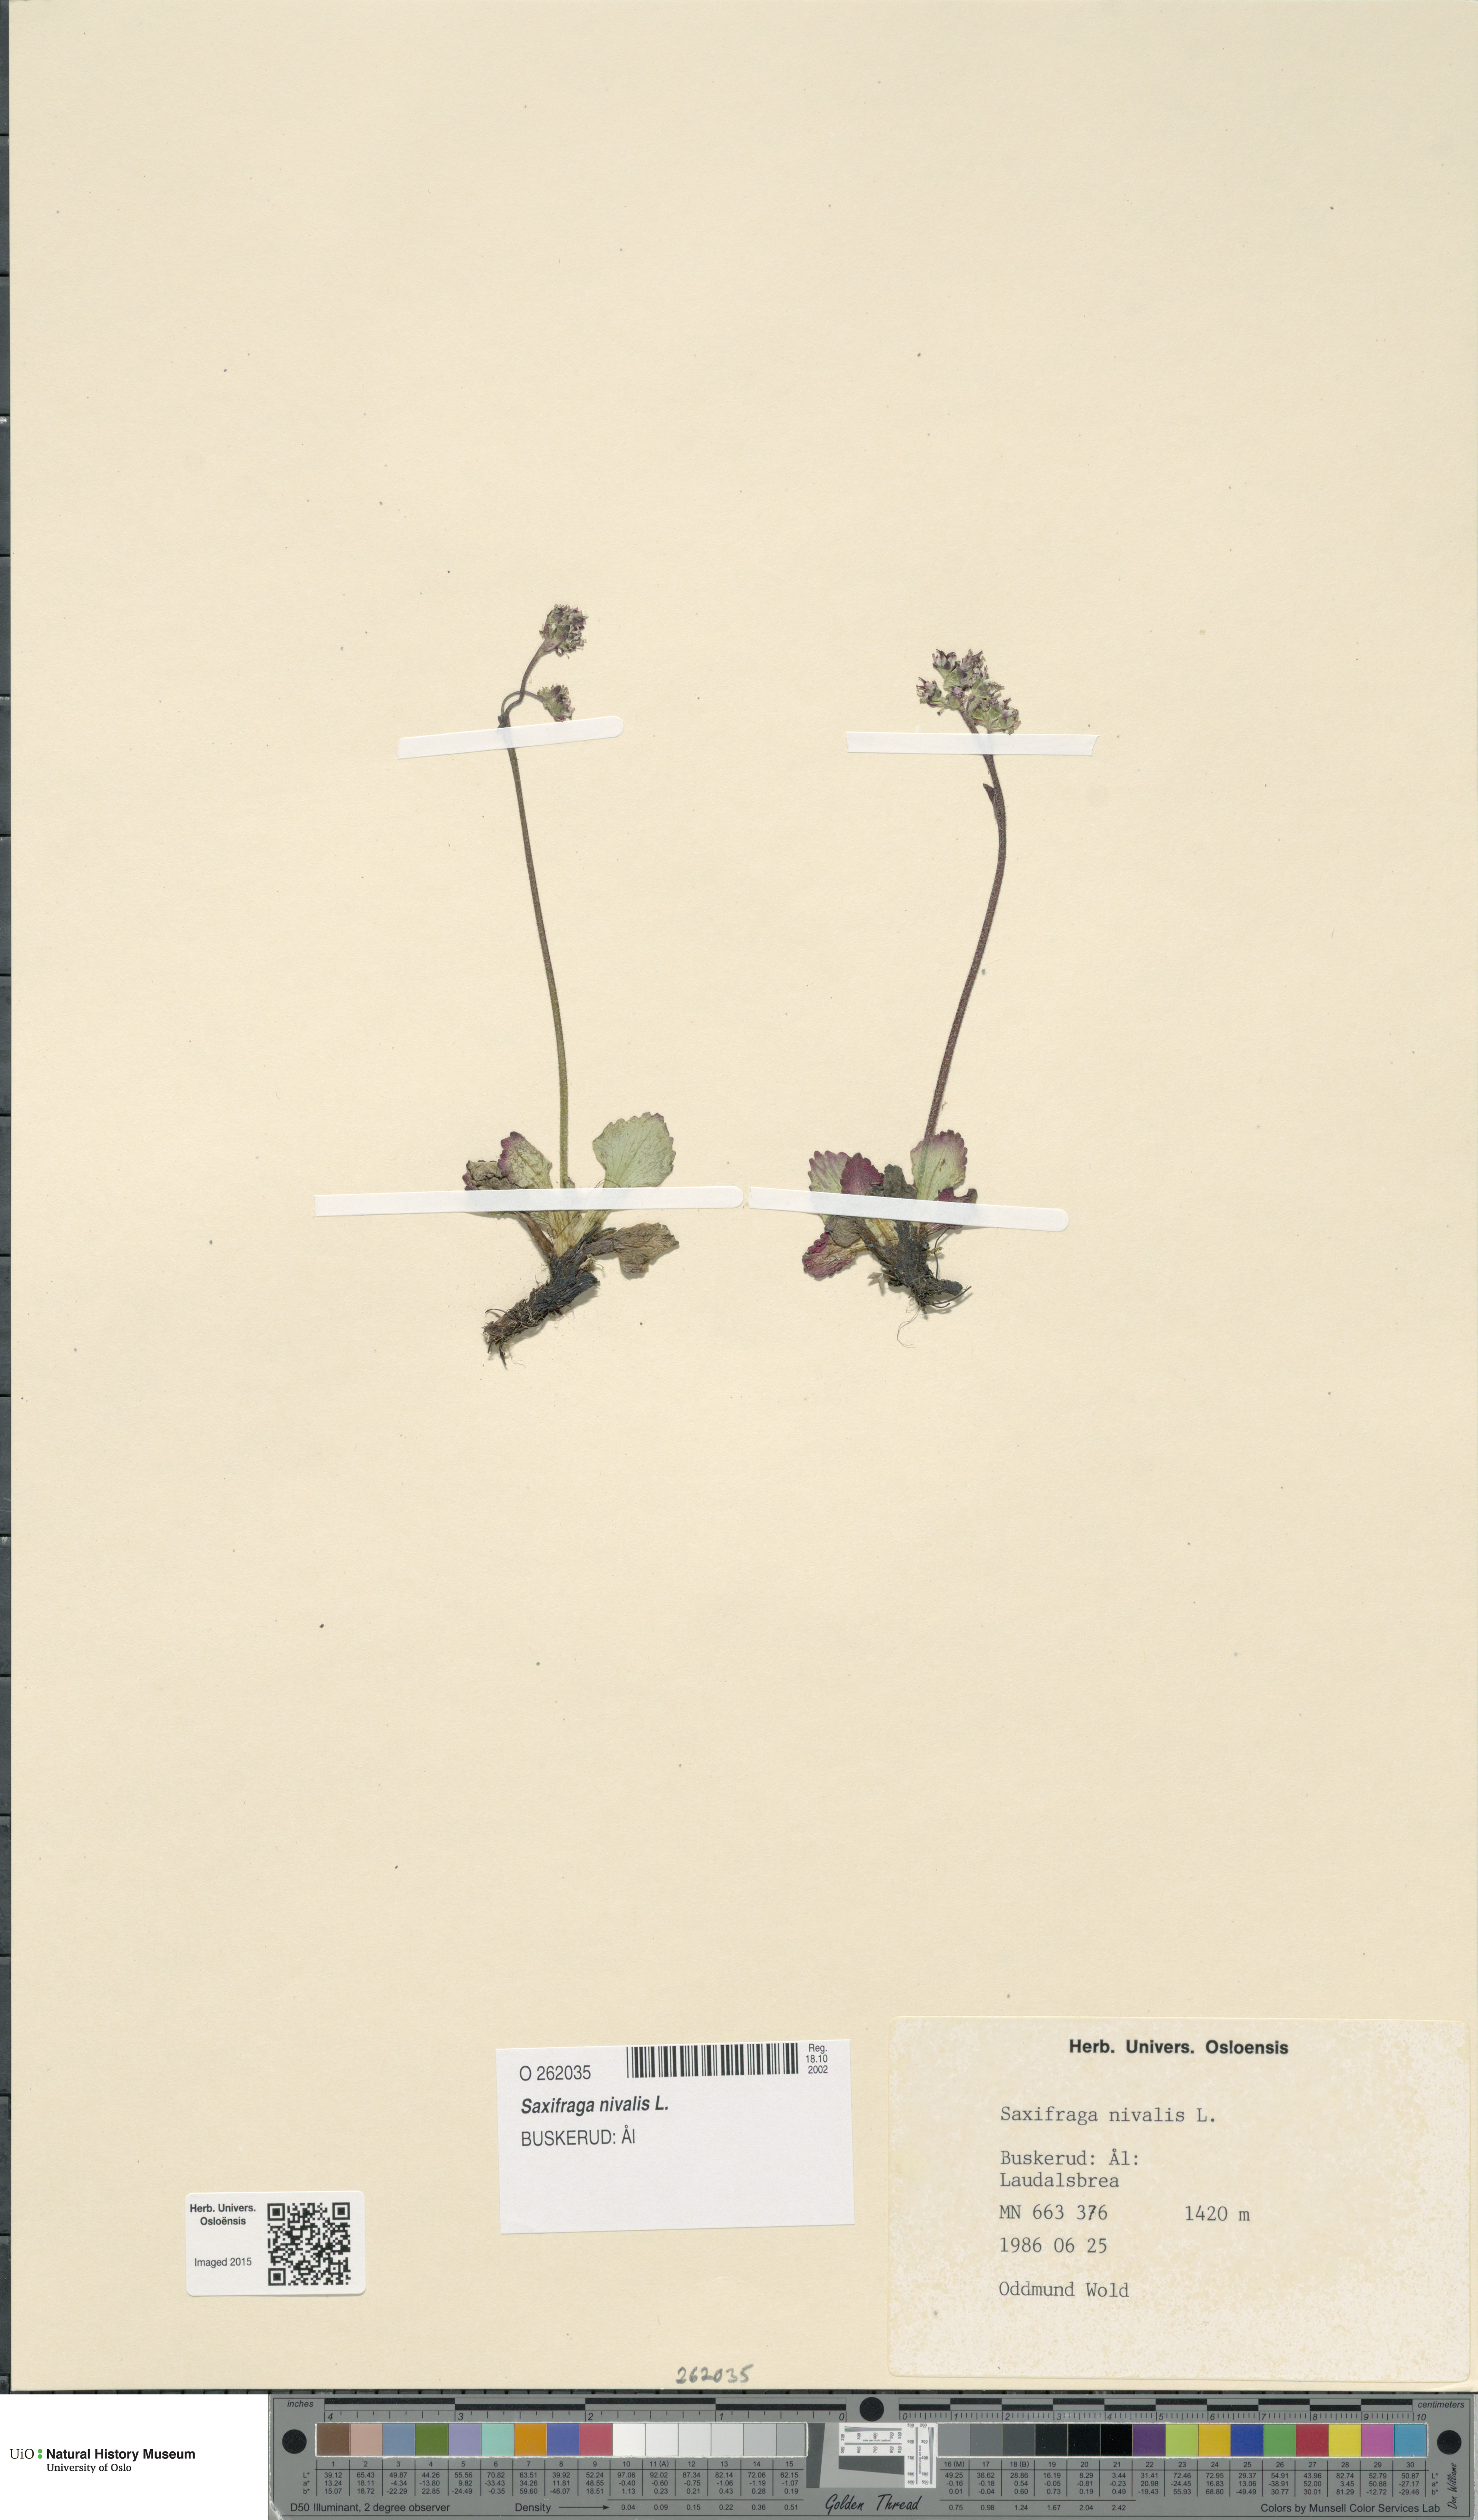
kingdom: Plantae
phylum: Tracheophyta
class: Magnoliopsida
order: Saxifragales
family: Saxifragaceae
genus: Micranthes
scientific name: Micranthes nivalis
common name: Alpine saxifrage
